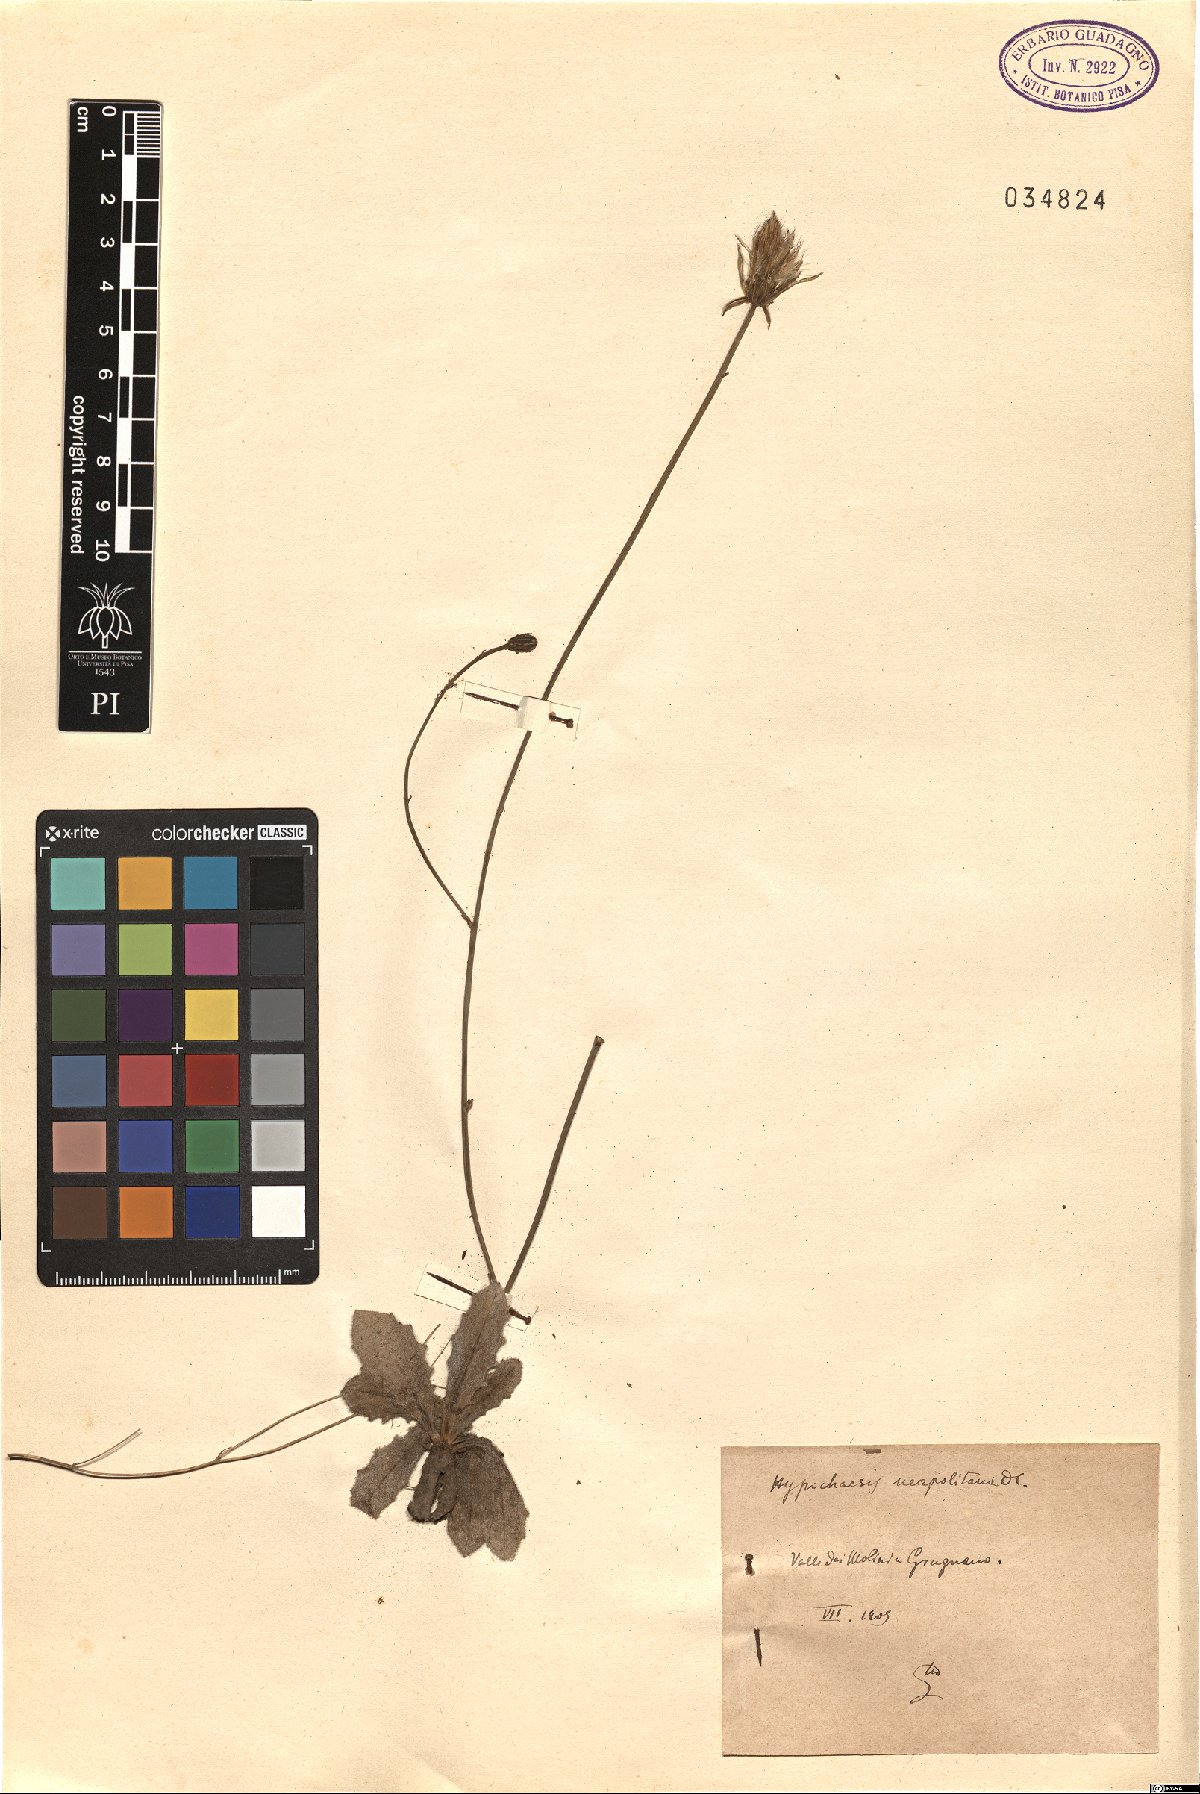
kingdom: Plantae
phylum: Tracheophyta
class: Magnoliopsida
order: Asterales
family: Asteraceae
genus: Hypochaeris
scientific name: Hypochaeris radicata
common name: Flatweed
